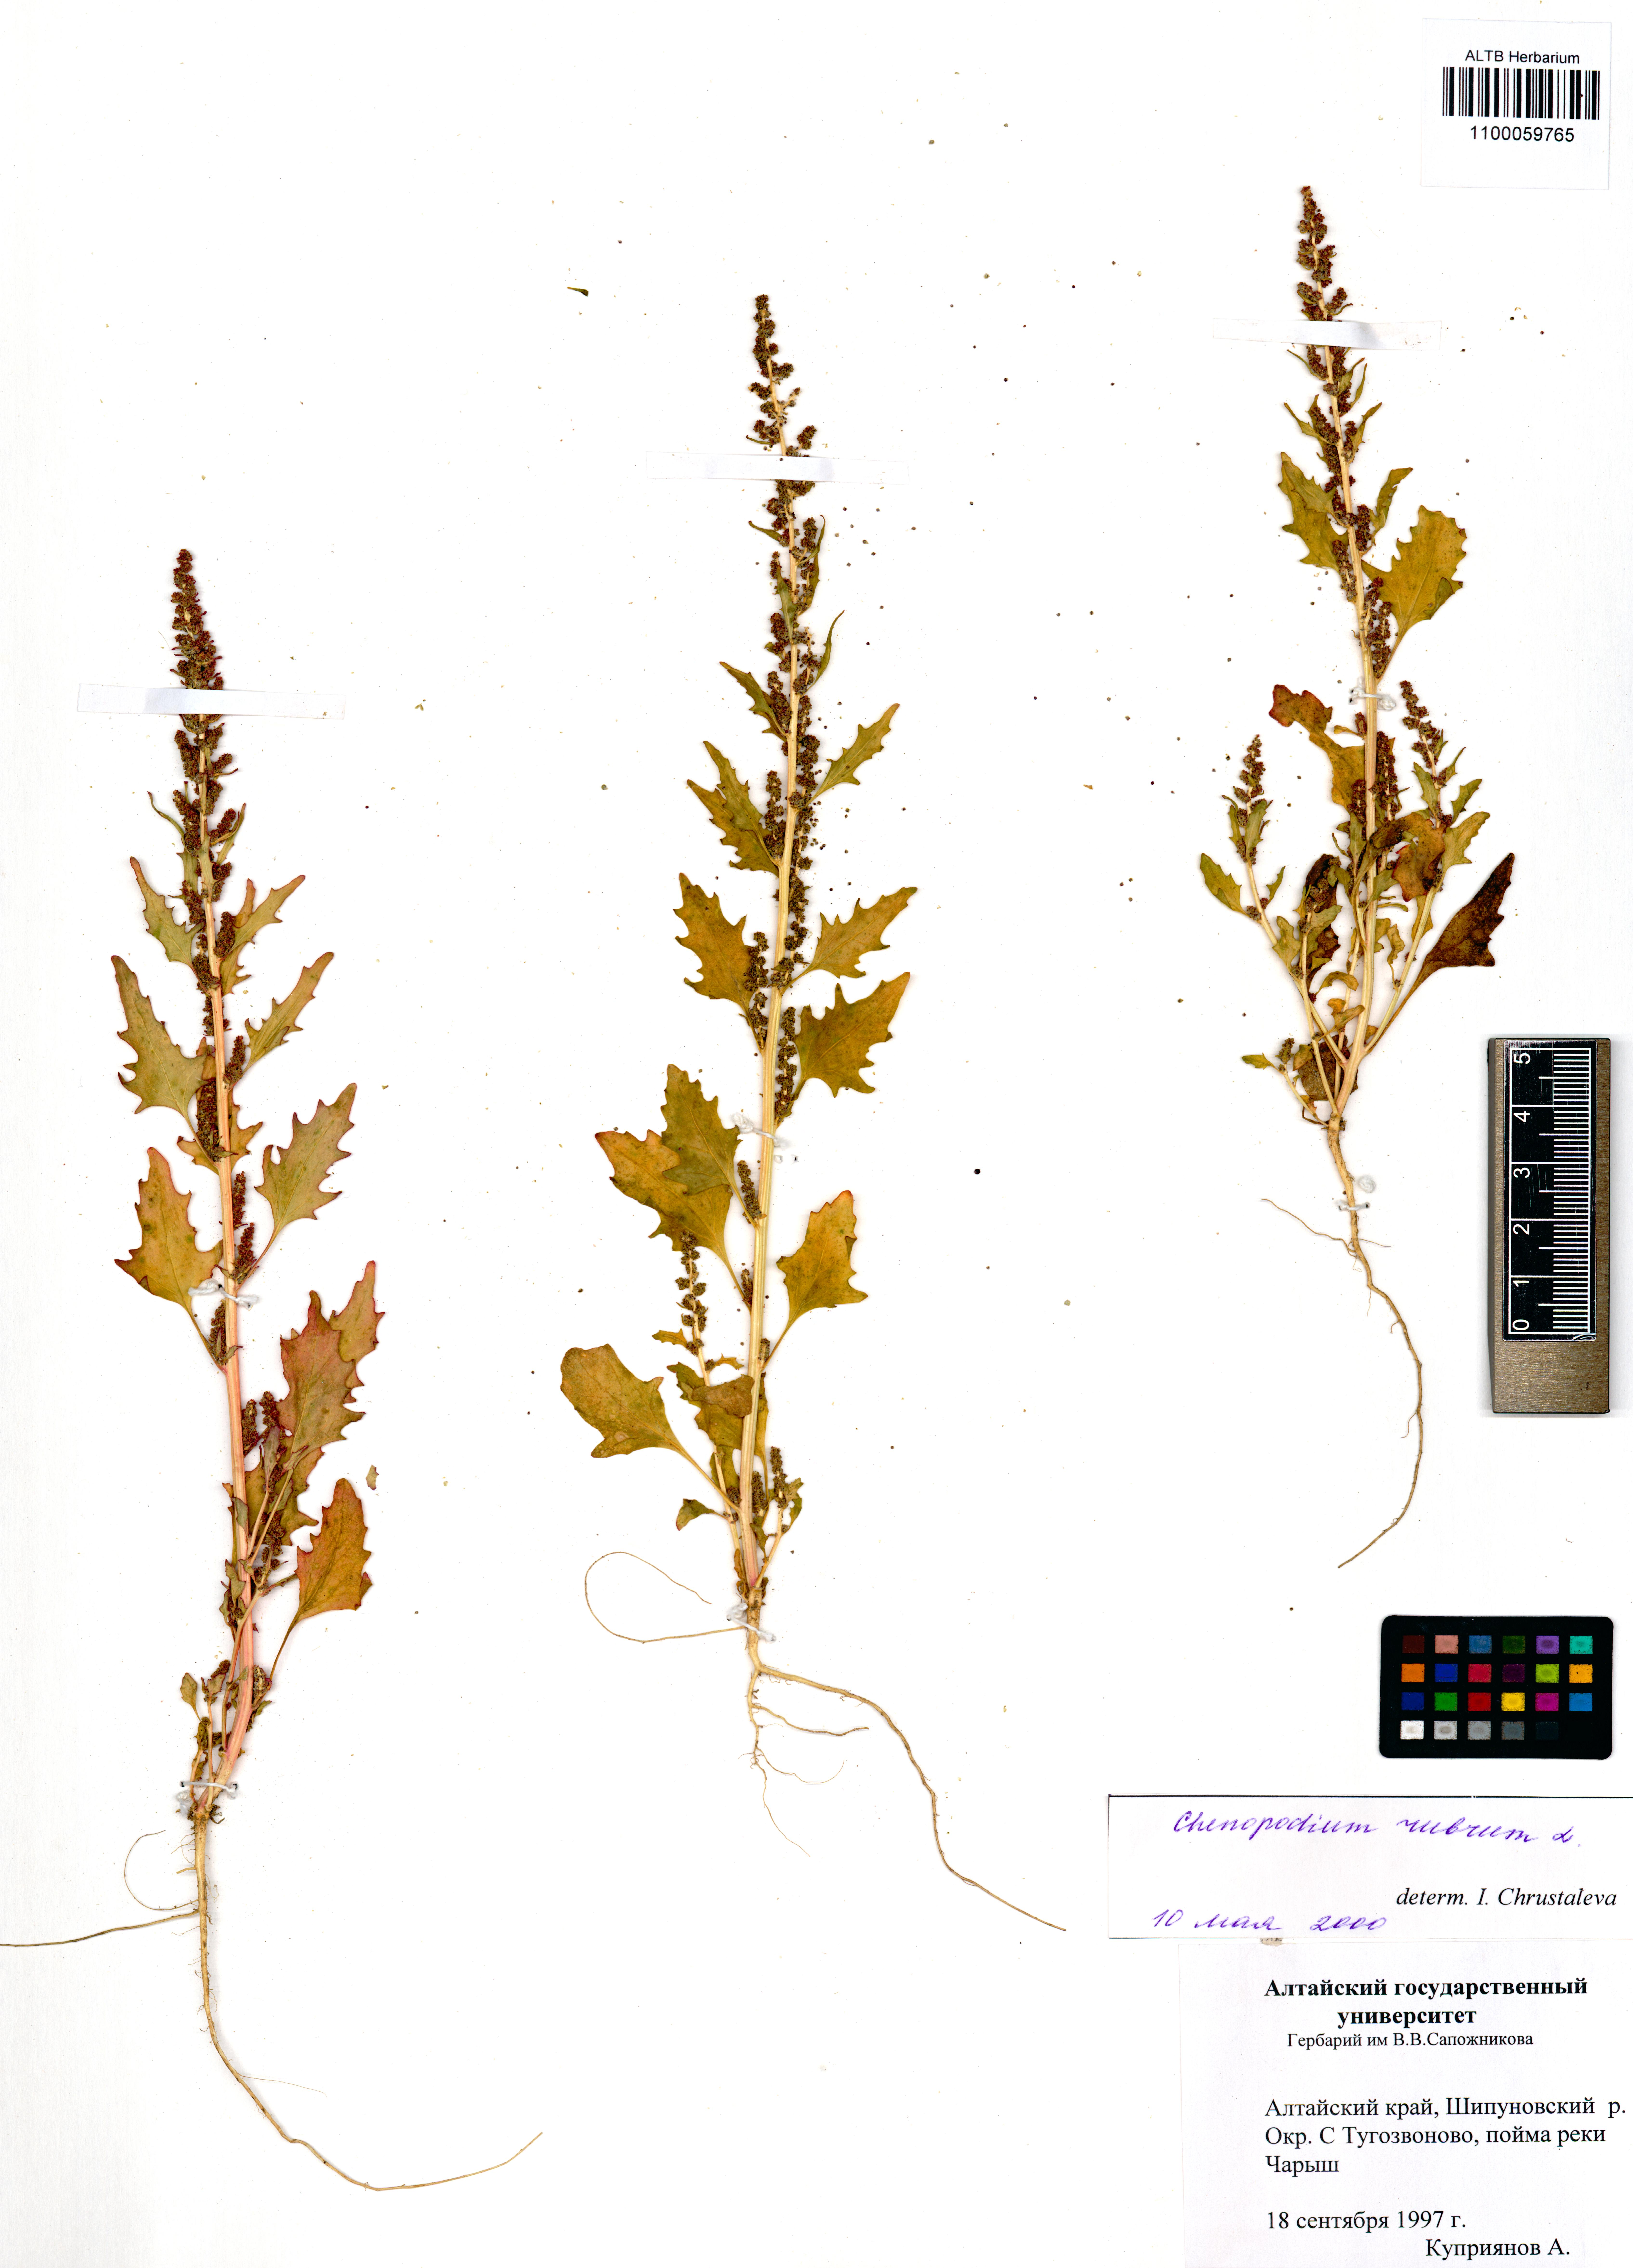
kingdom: Plantae
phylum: Tracheophyta
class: Magnoliopsida
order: Caryophyllales
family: Amaranthaceae
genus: Oxybasis
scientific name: Oxybasis rubra
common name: Red goosefoot
